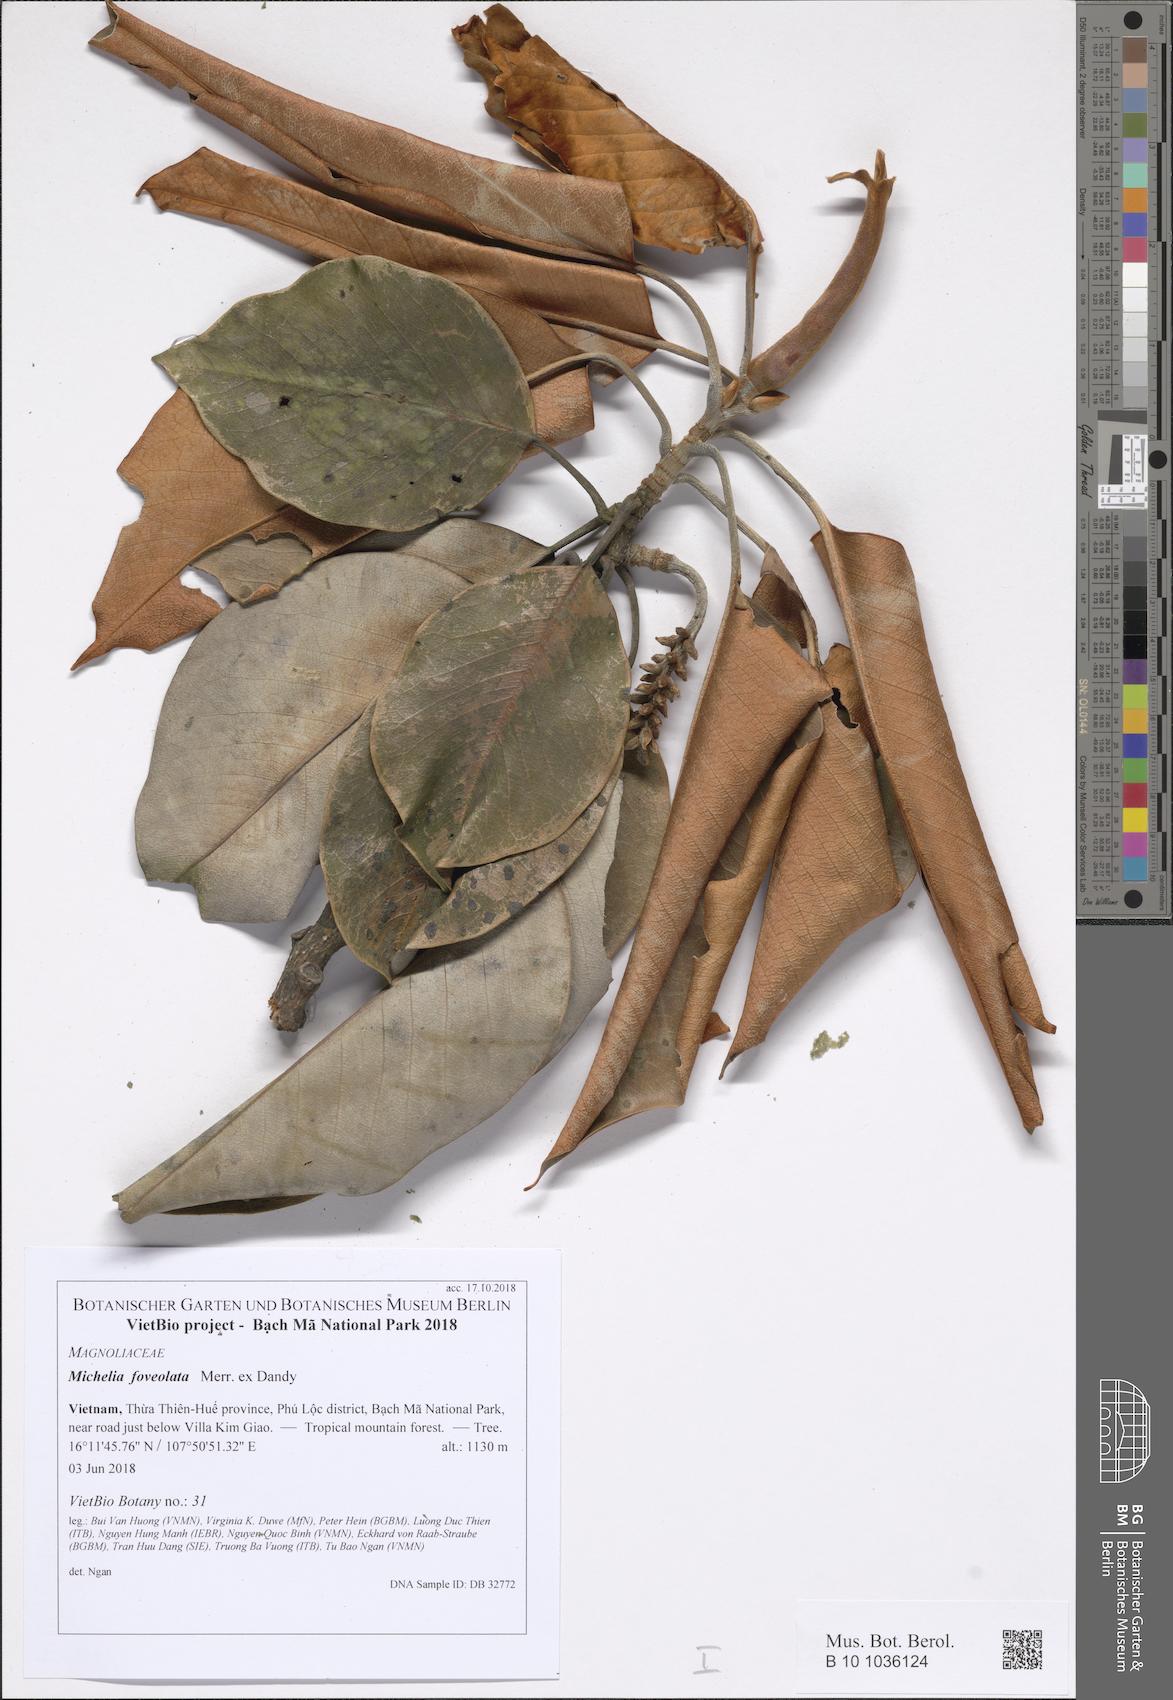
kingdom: Plantae
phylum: Tracheophyta
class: Magnoliopsida
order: Magnoliales
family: Magnoliaceae
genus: Magnolia
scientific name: Magnolia foveolata
